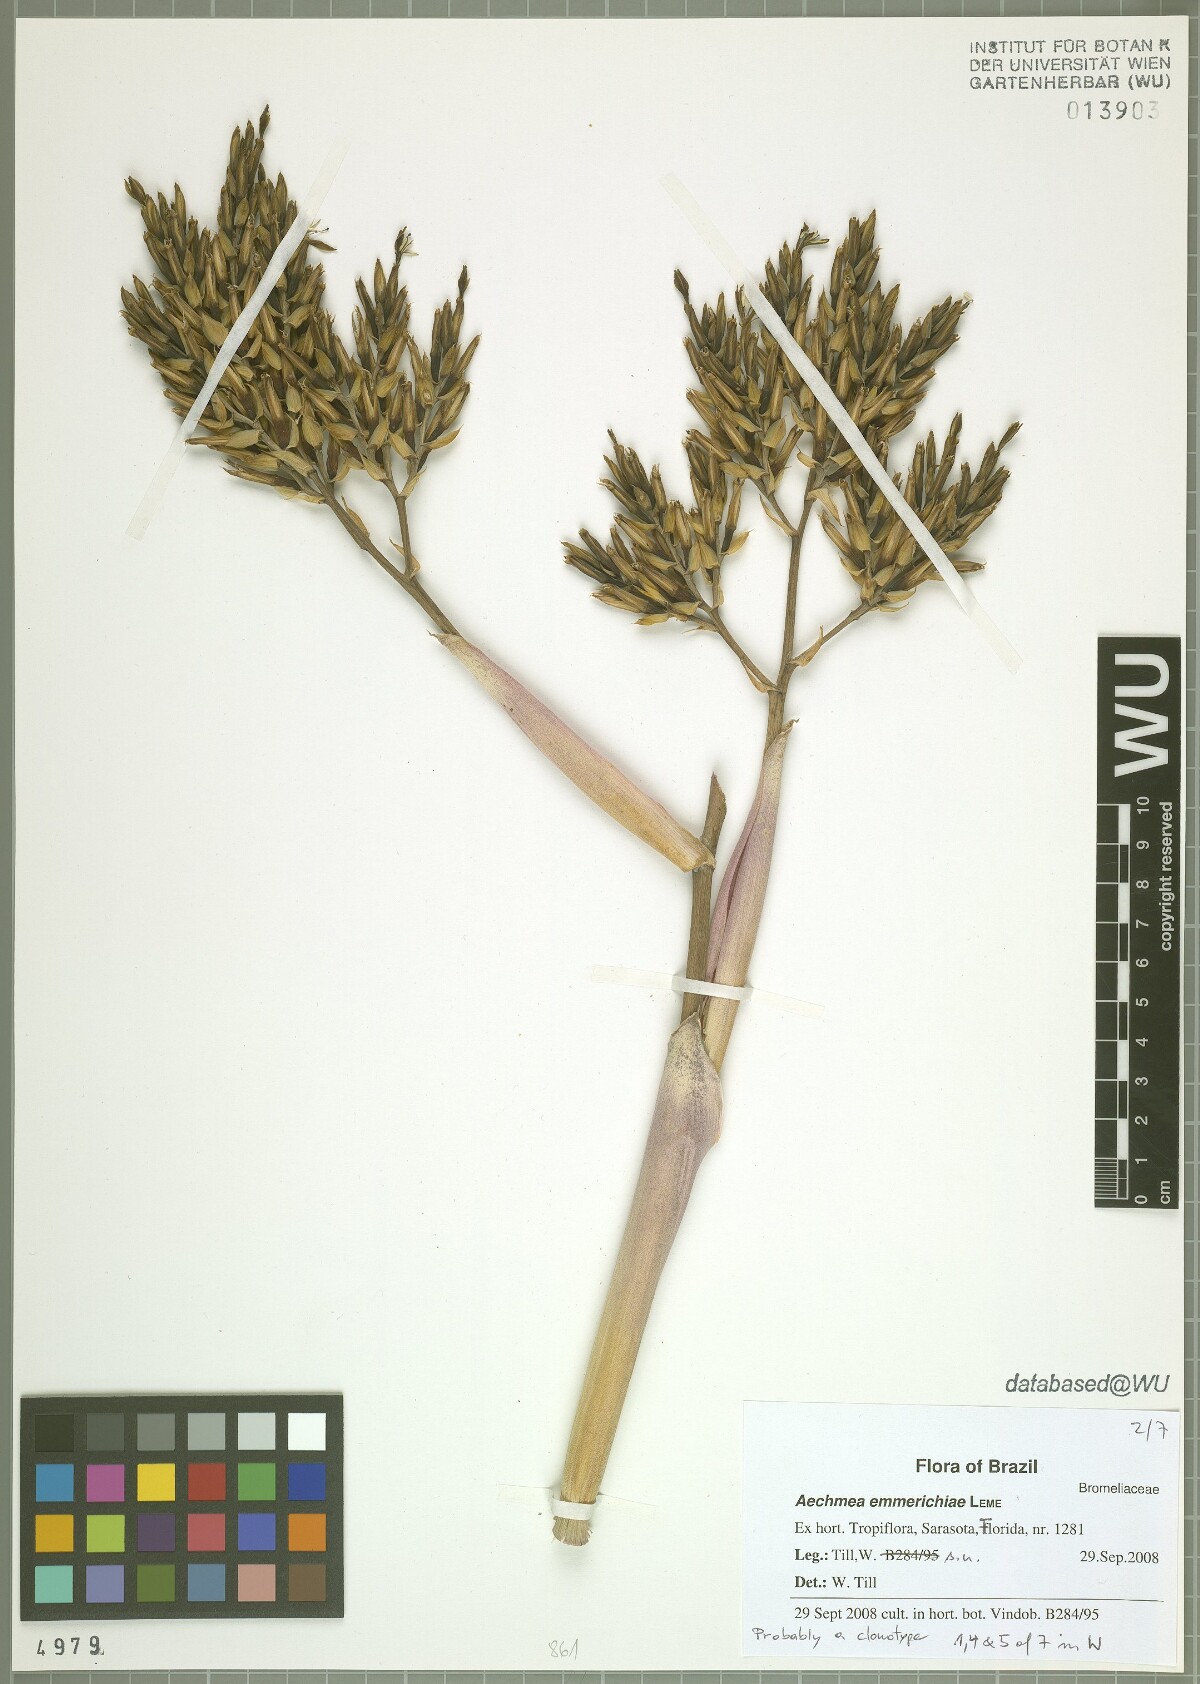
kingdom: Plantae
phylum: Tracheophyta
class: Liliopsida
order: Poales
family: Bromeliaceae
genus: Aechmea
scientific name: Aechmea emmerichiae
